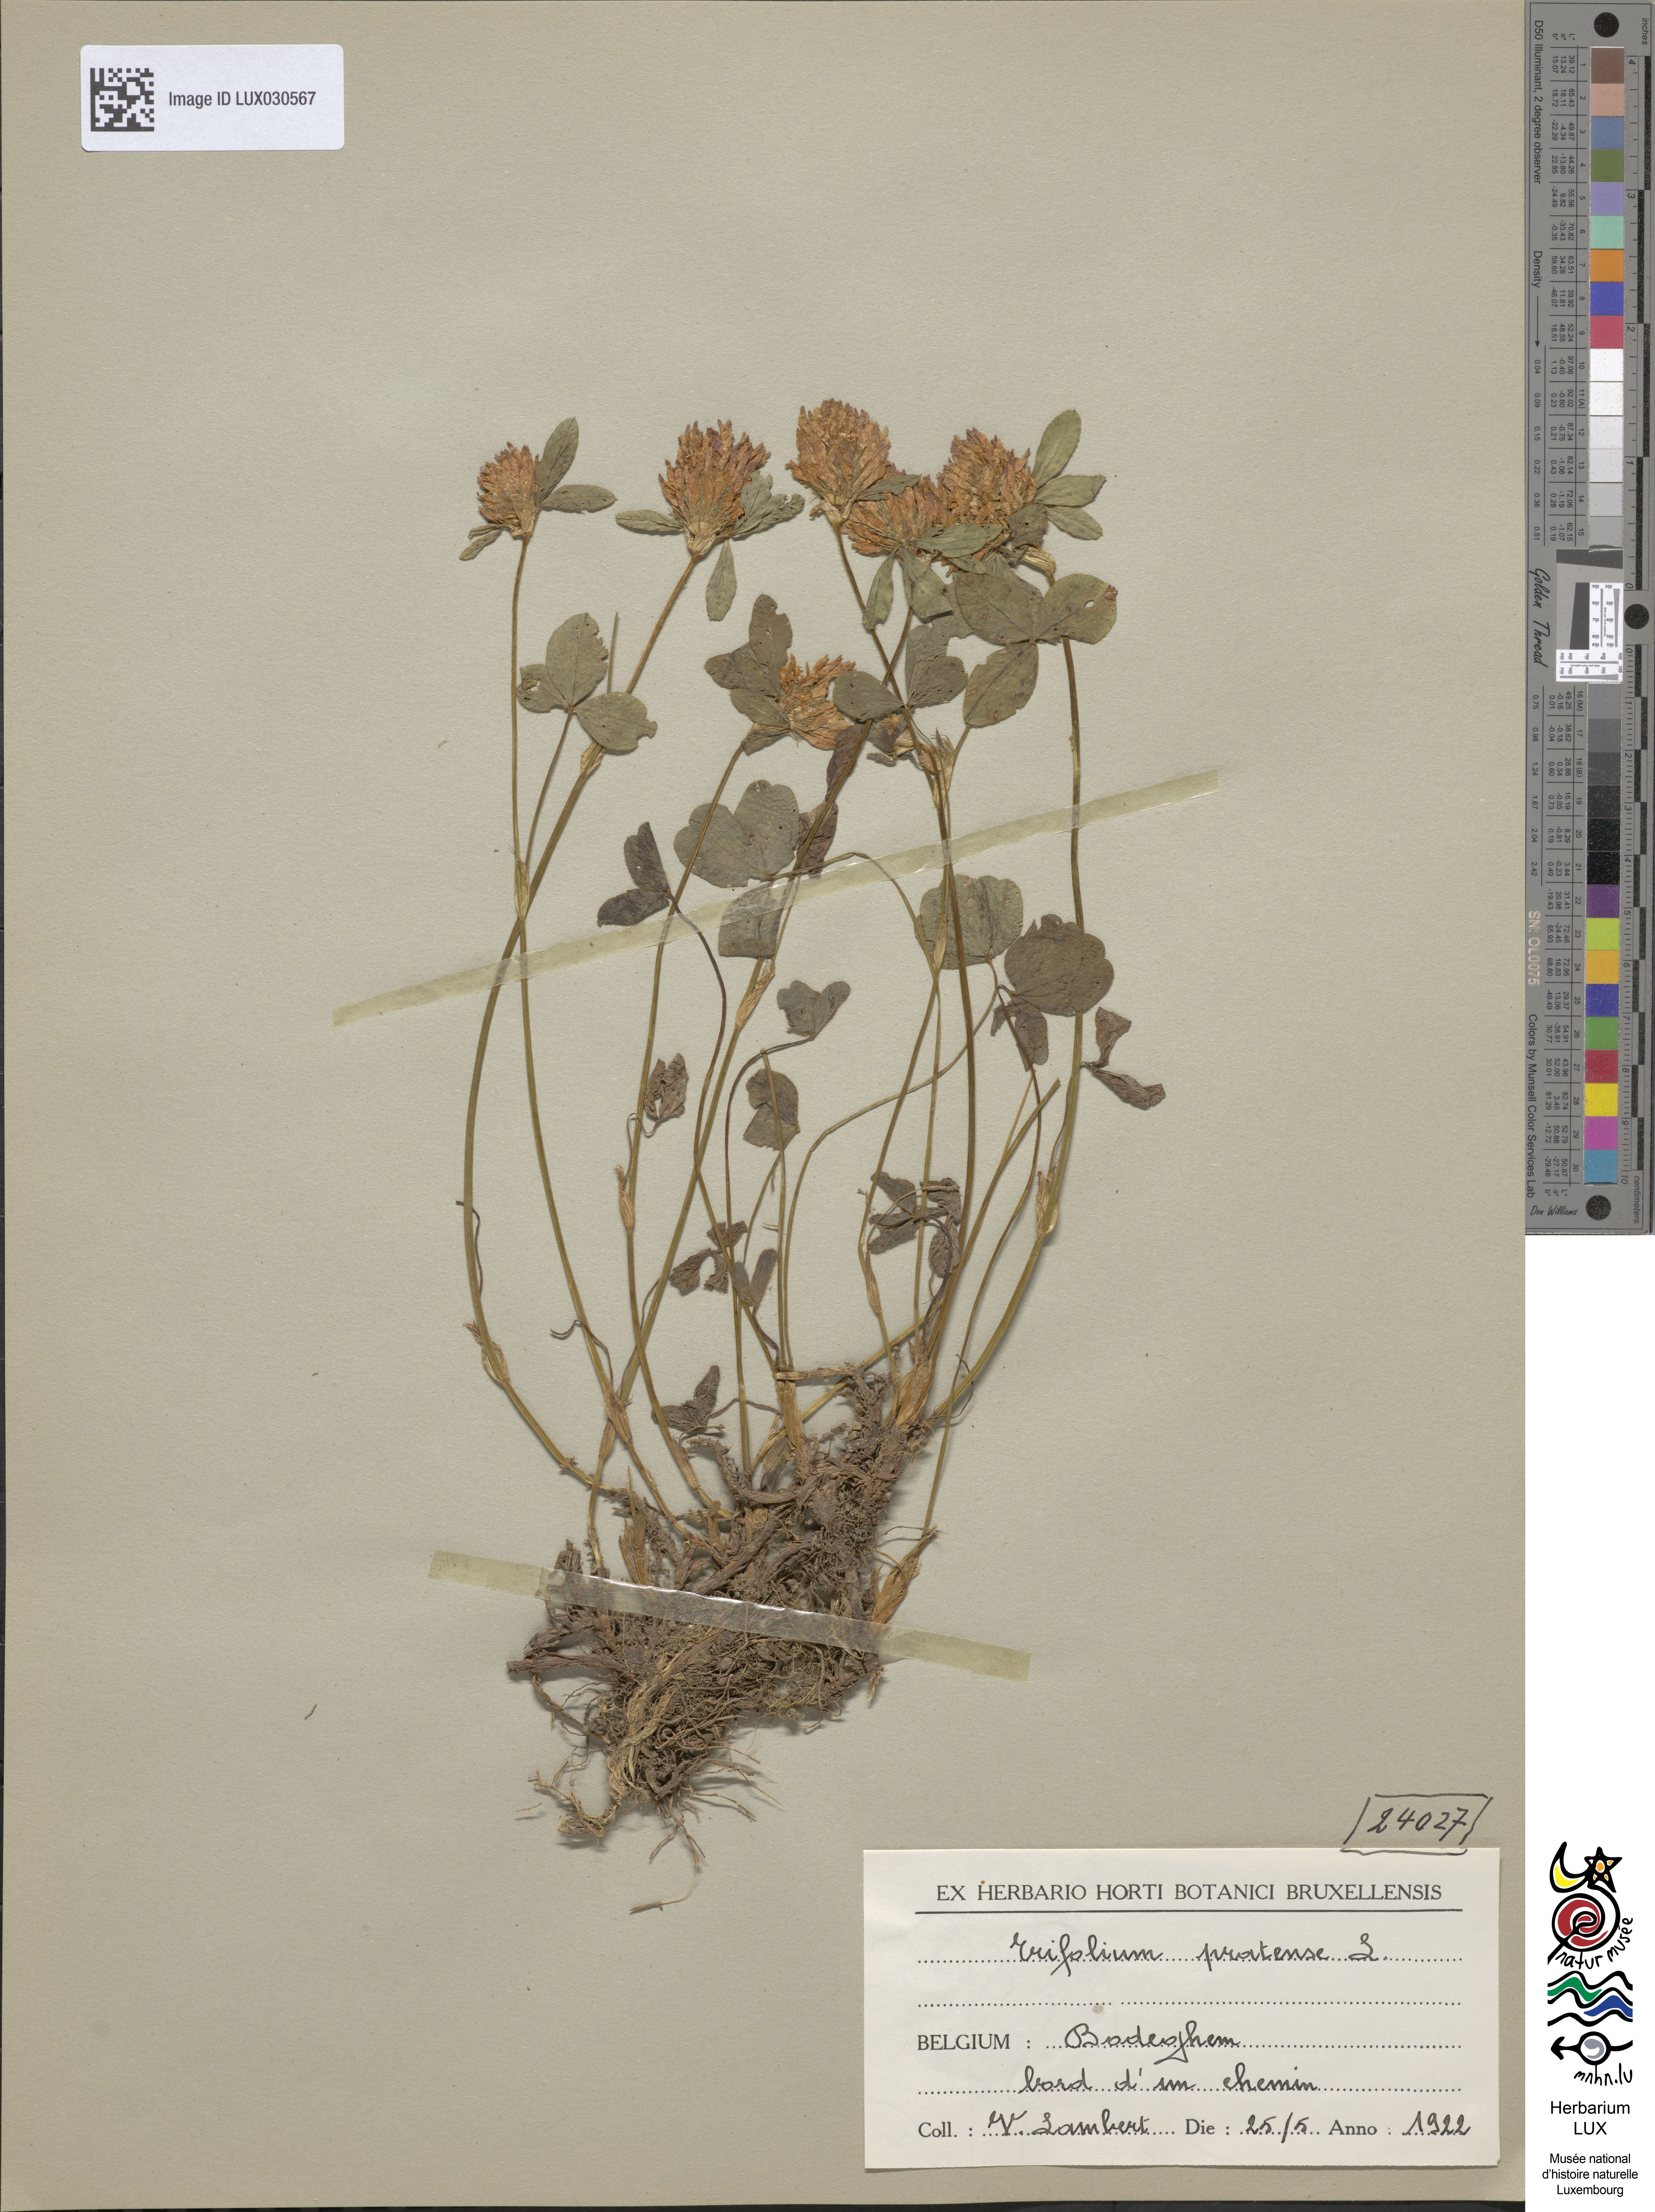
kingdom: Plantae
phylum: Tracheophyta
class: Magnoliopsida
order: Fabales
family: Fabaceae
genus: Trifolium
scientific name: Trifolium pratense
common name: Red clover
